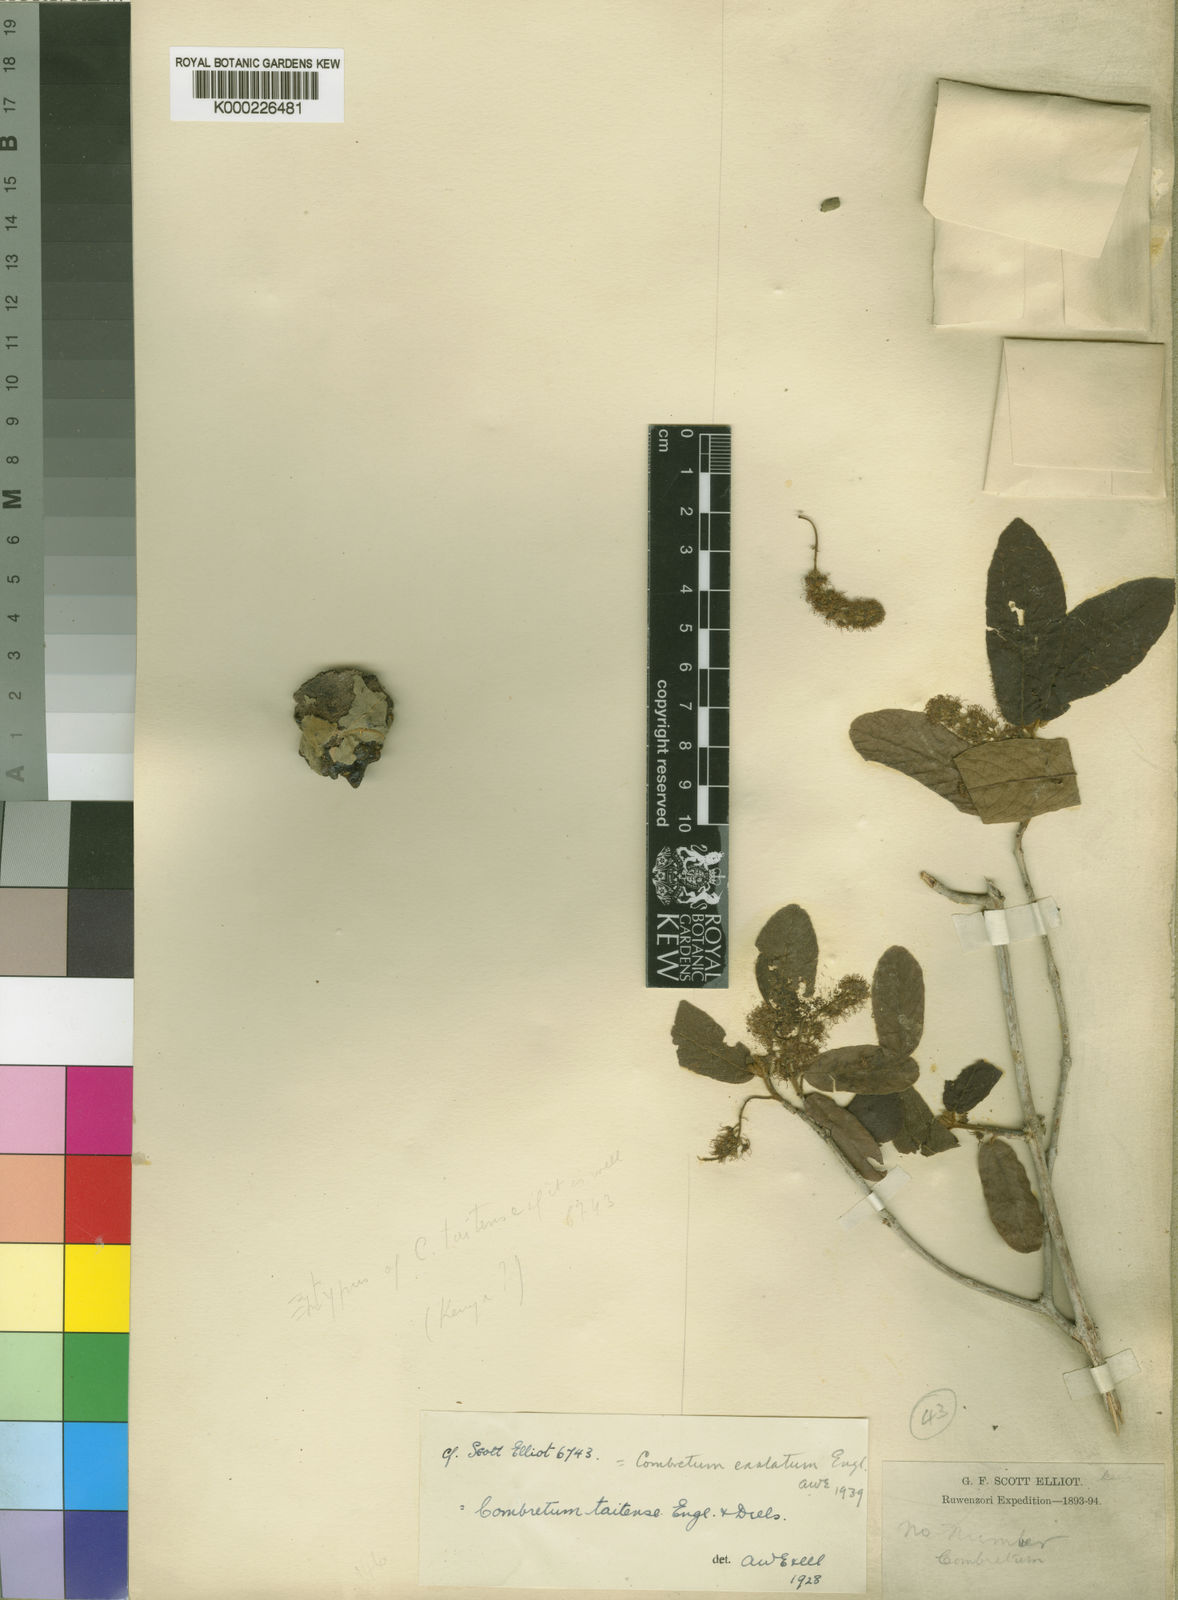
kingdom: Plantae
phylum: Tracheophyta
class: Magnoliopsida
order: Myrtales
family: Combretaceae
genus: Combretum
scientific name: Combretum exalatum
